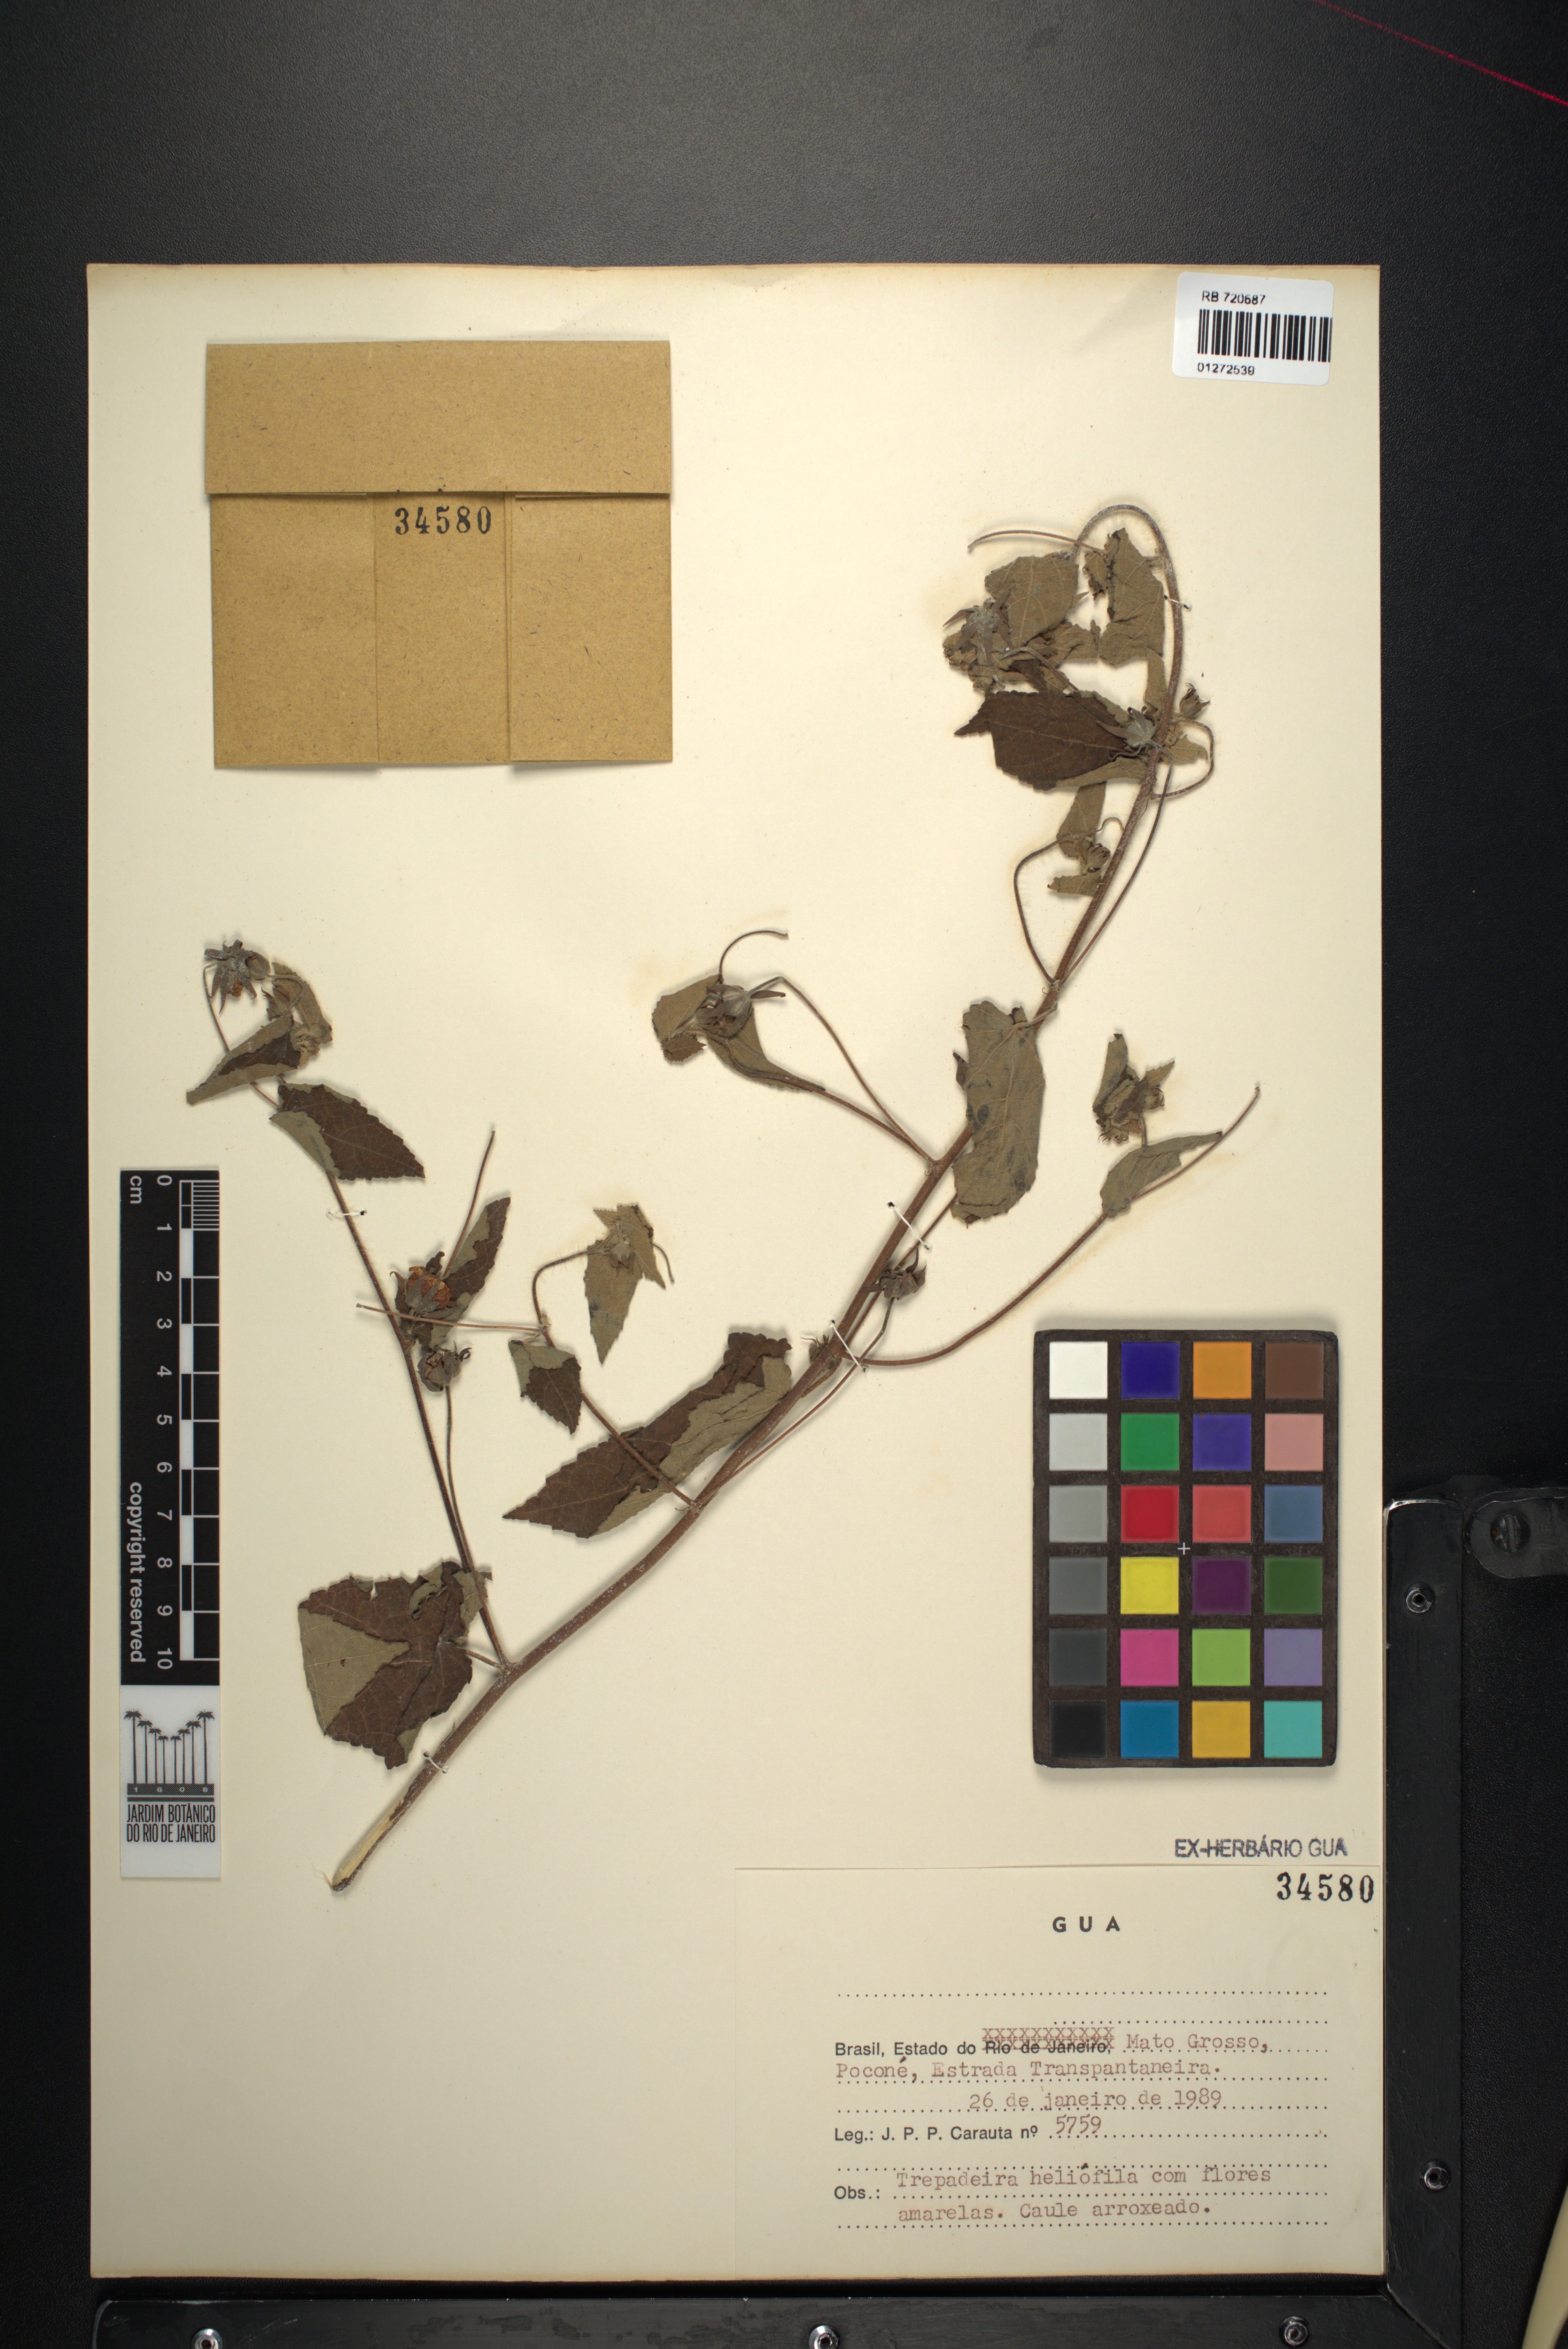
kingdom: Plantae
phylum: Tracheophyta
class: Magnoliopsida
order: Malvales
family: Malvaceae
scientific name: Malvaceae
